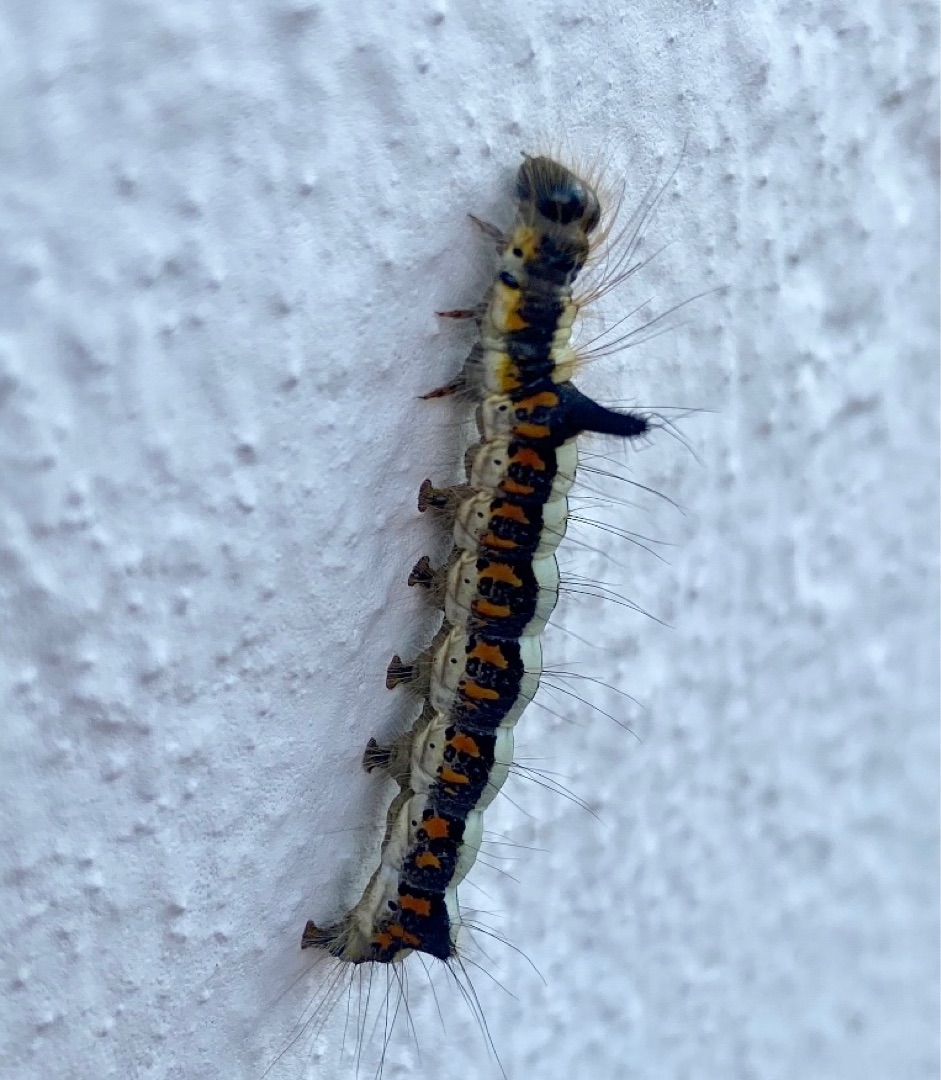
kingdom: Animalia
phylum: Arthropoda
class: Insecta
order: Lepidoptera
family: Noctuidae
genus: Acronicta
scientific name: Acronicta psi
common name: Psi-ugle
